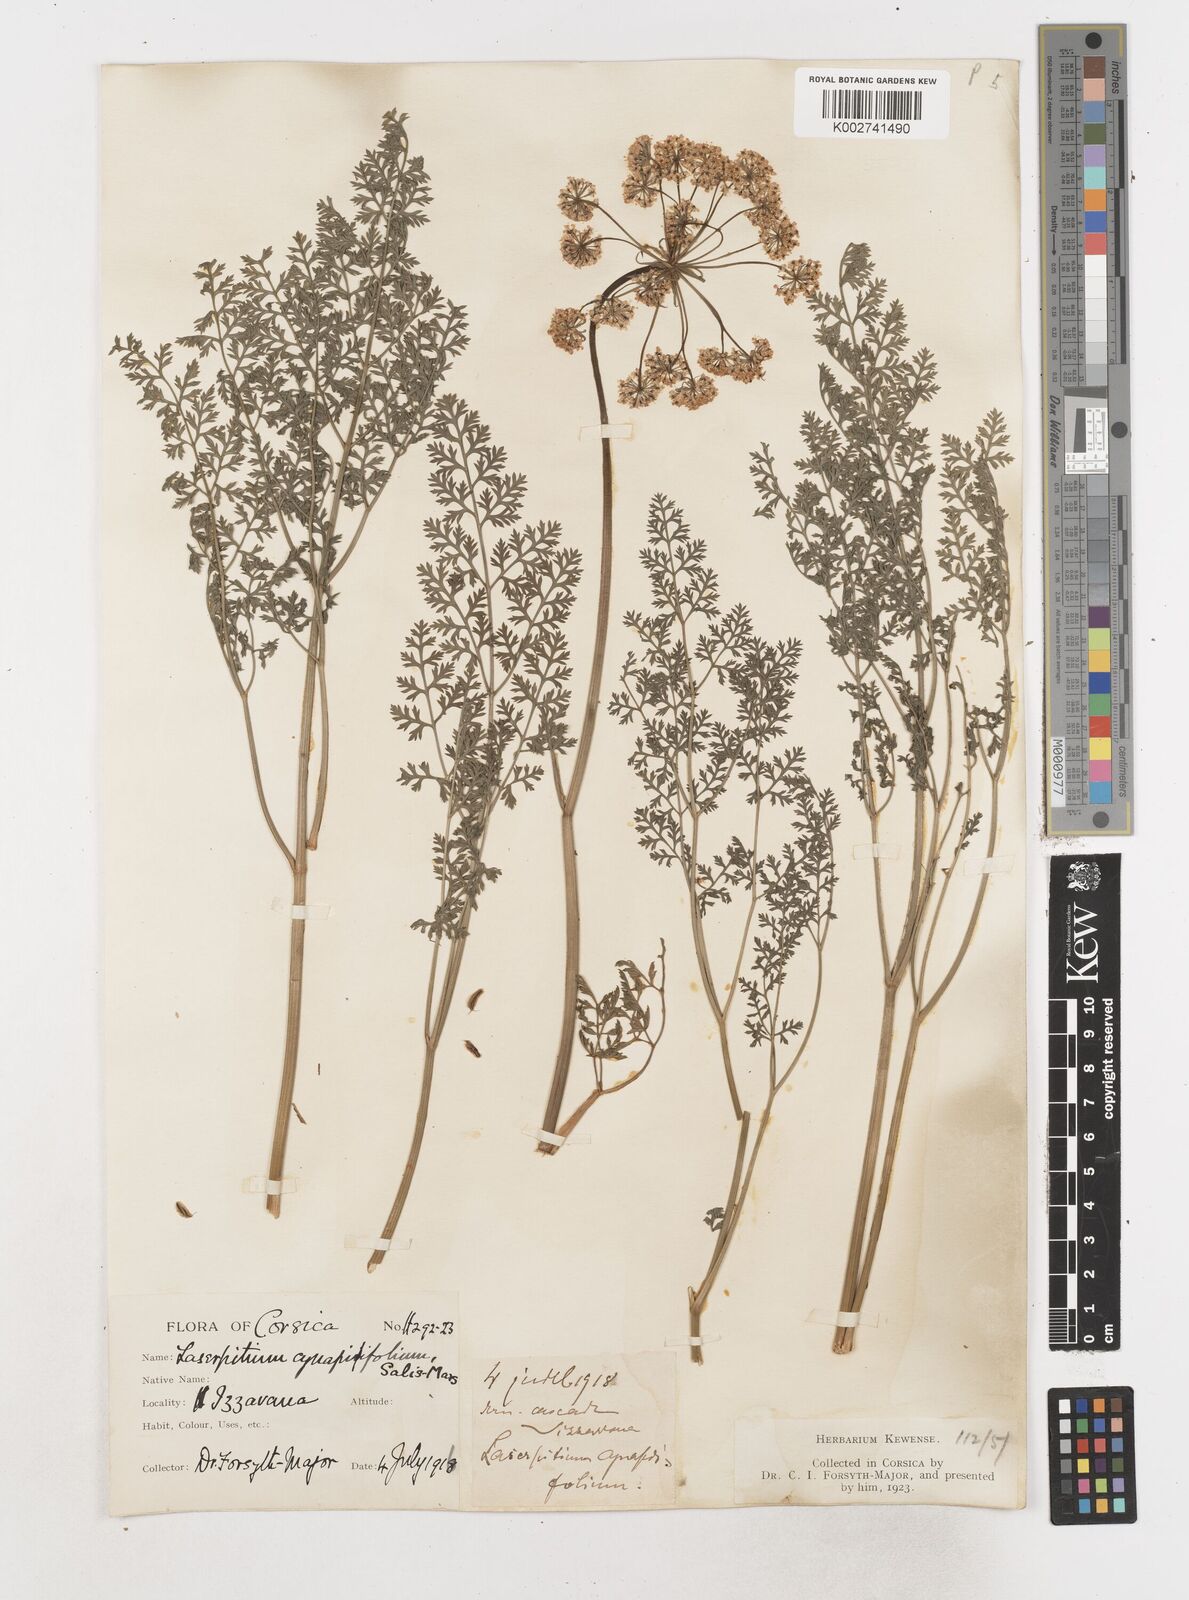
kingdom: Plantae
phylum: Tracheophyta
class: Magnoliopsida
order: Apiales
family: Apiaceae
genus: Laserpitium
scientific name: Laserpitium halleri
